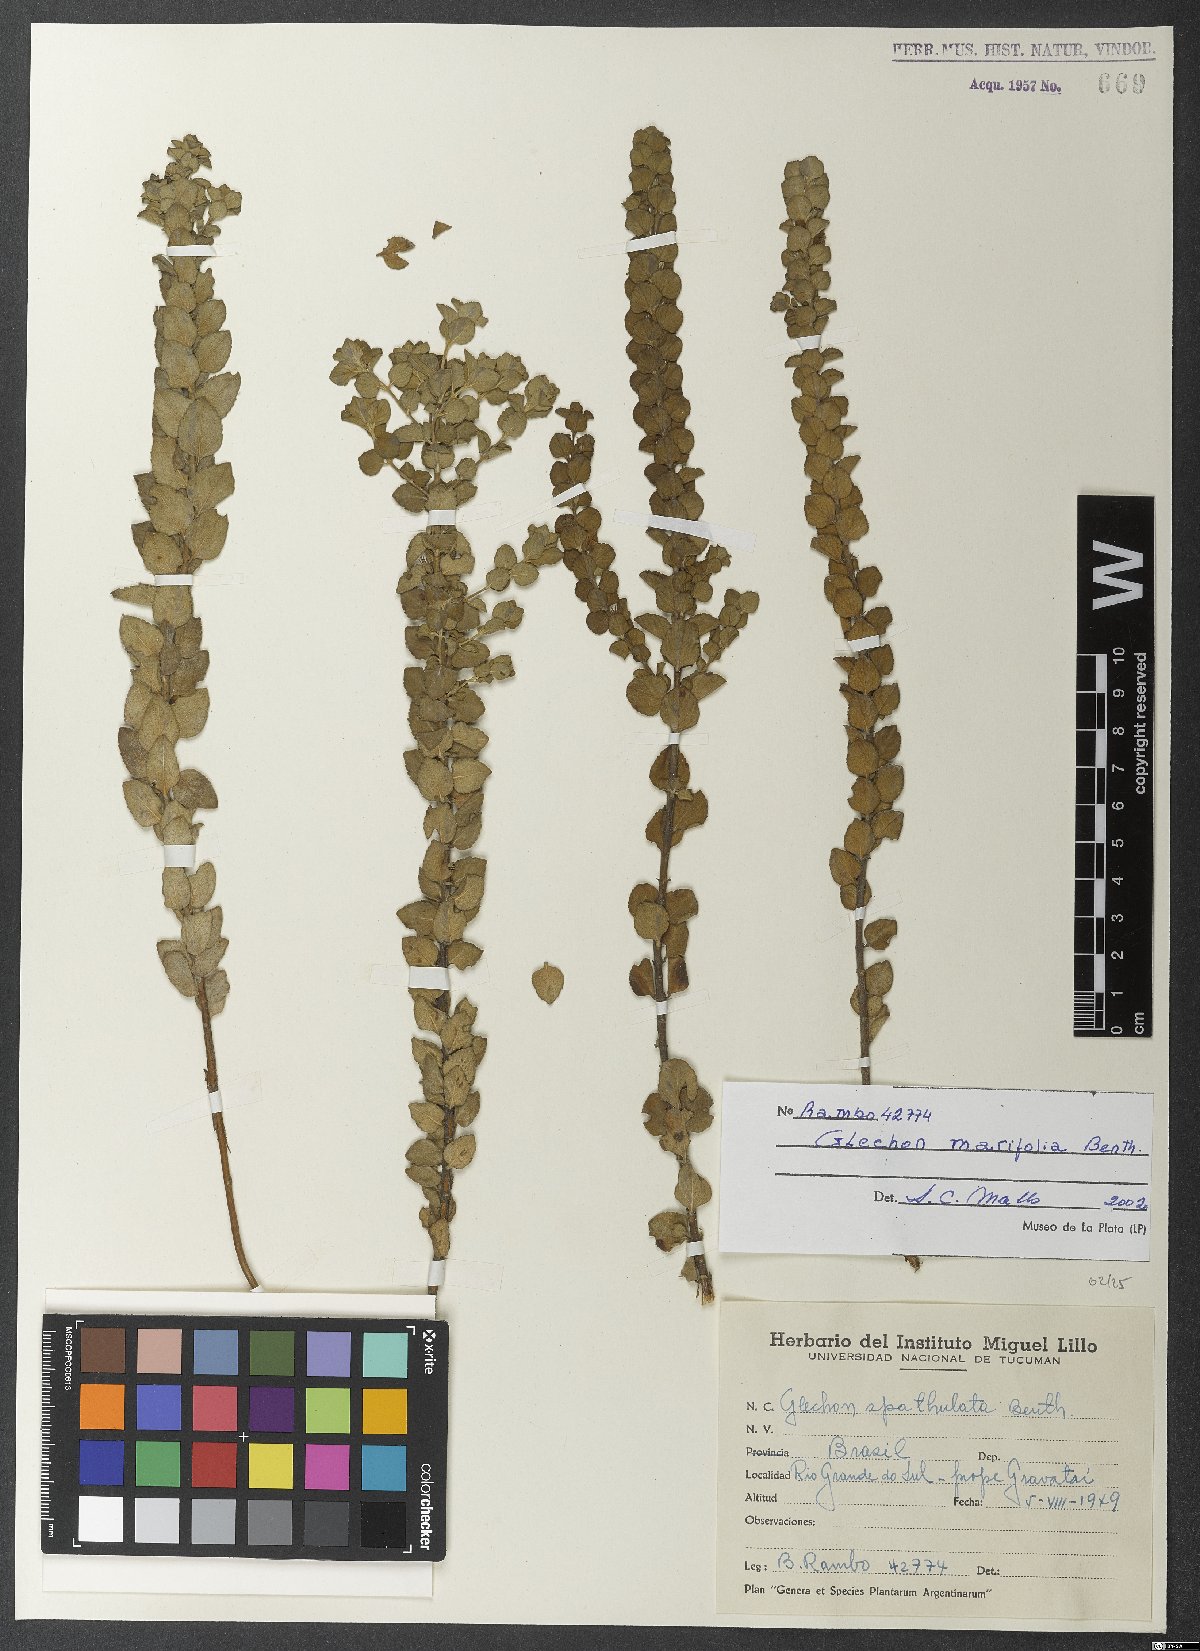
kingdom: Plantae
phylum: Tracheophyta
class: Magnoliopsida
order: Lamiales
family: Lamiaceae
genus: Glechon
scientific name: Glechon marifolia
